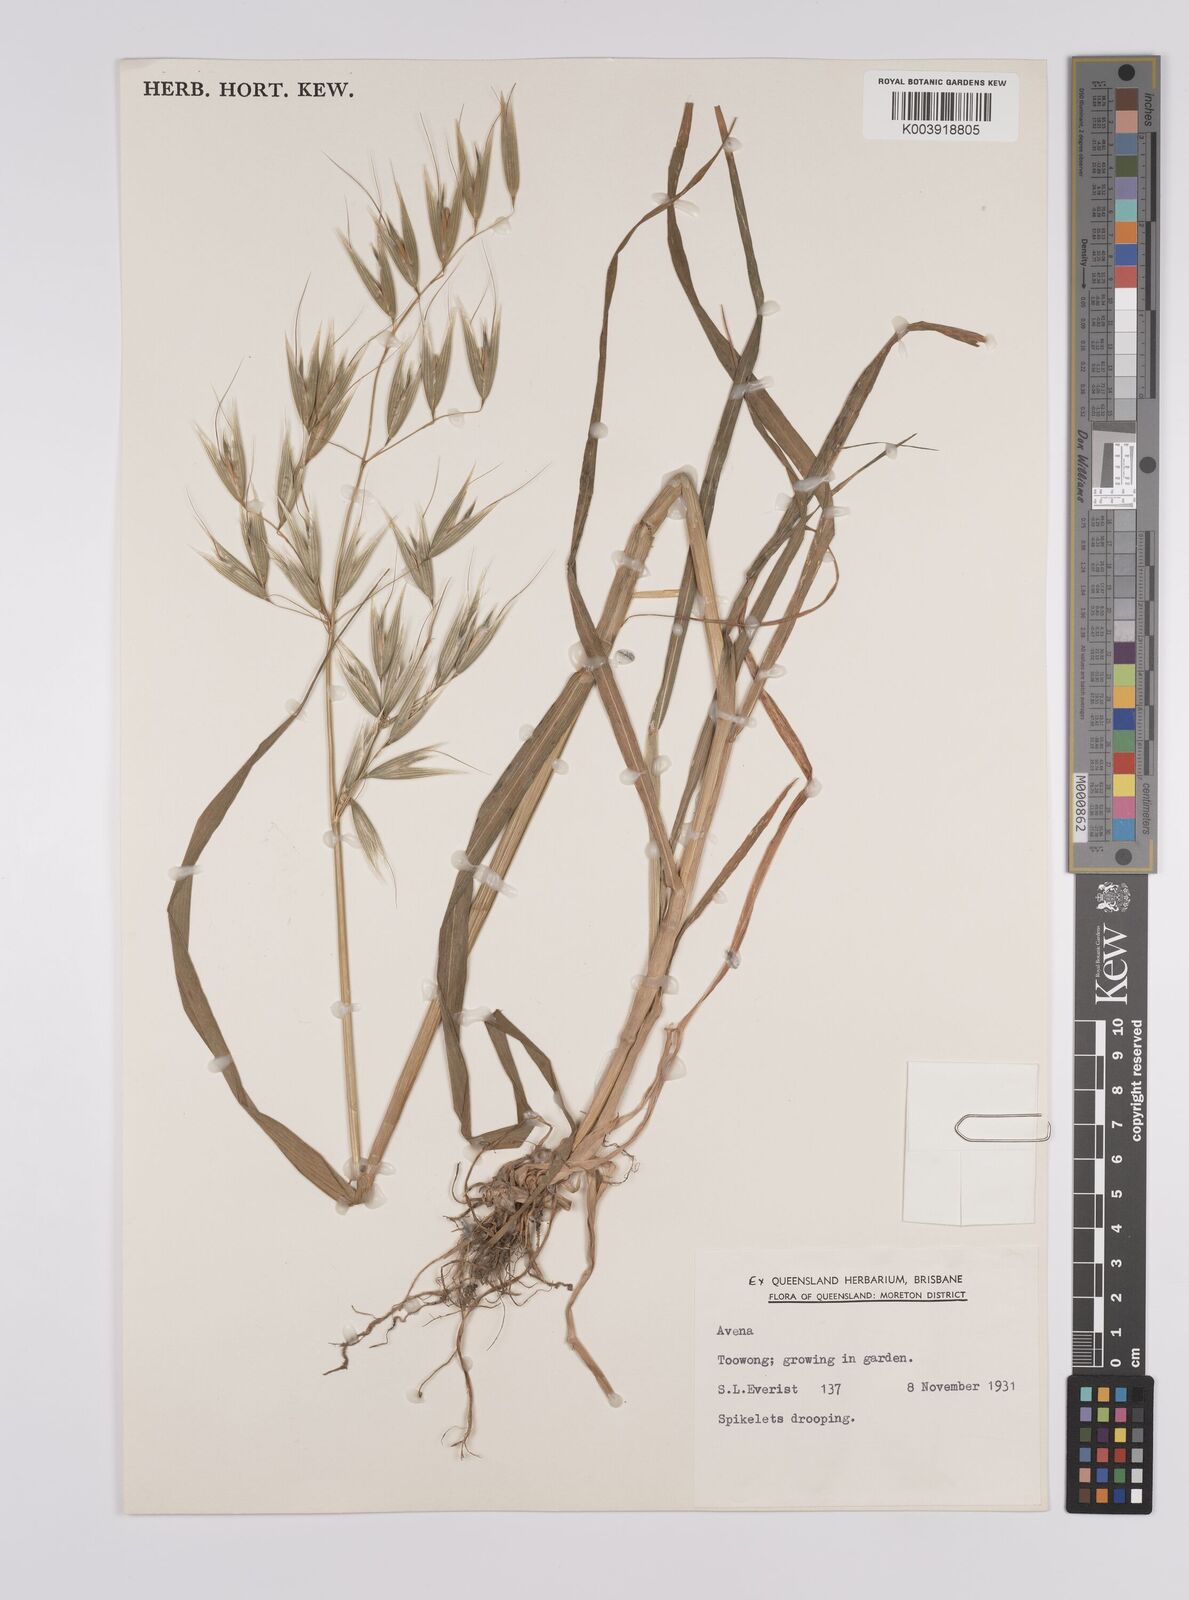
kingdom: Plantae
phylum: Tracheophyta
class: Liliopsida
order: Poales
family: Poaceae
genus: Avena
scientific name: Avena
